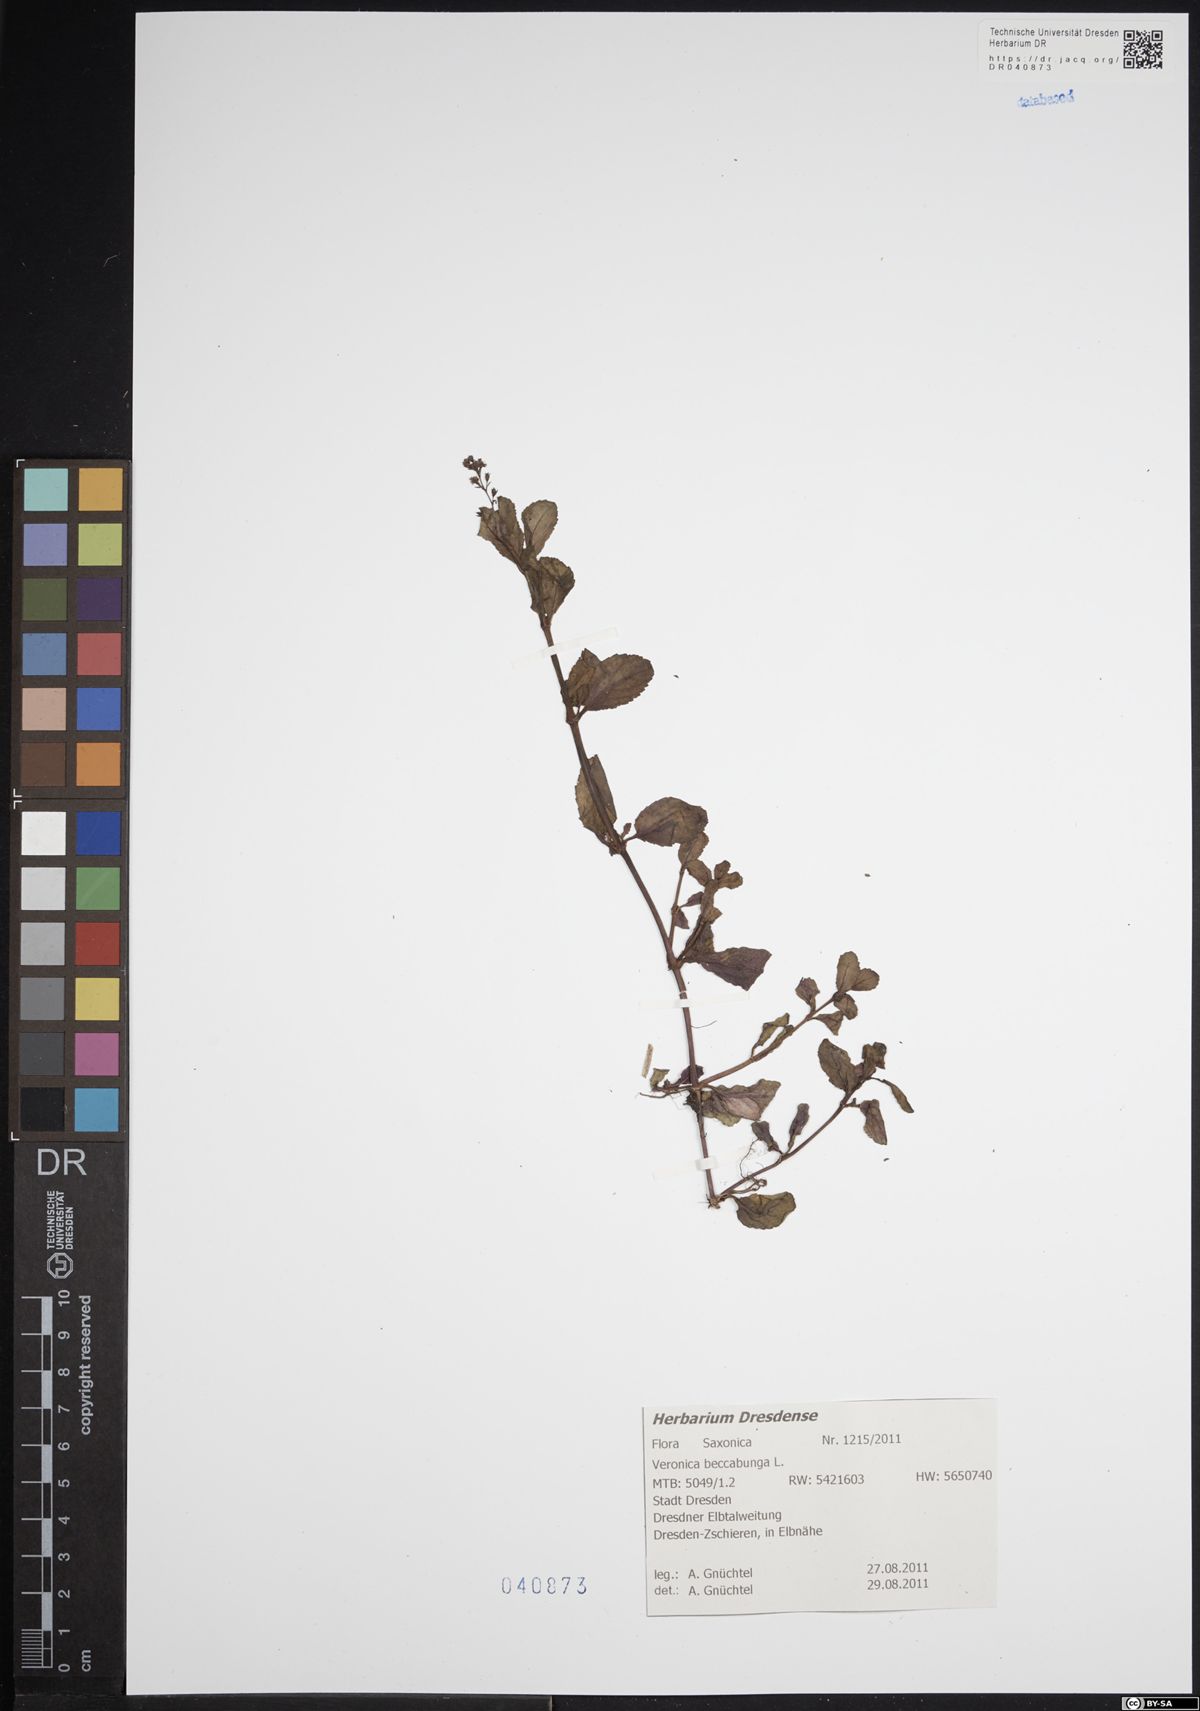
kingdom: Plantae
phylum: Tracheophyta
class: Magnoliopsida
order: Lamiales
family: Plantaginaceae
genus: Veronica
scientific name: Veronica beccabunga
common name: Brooklime
